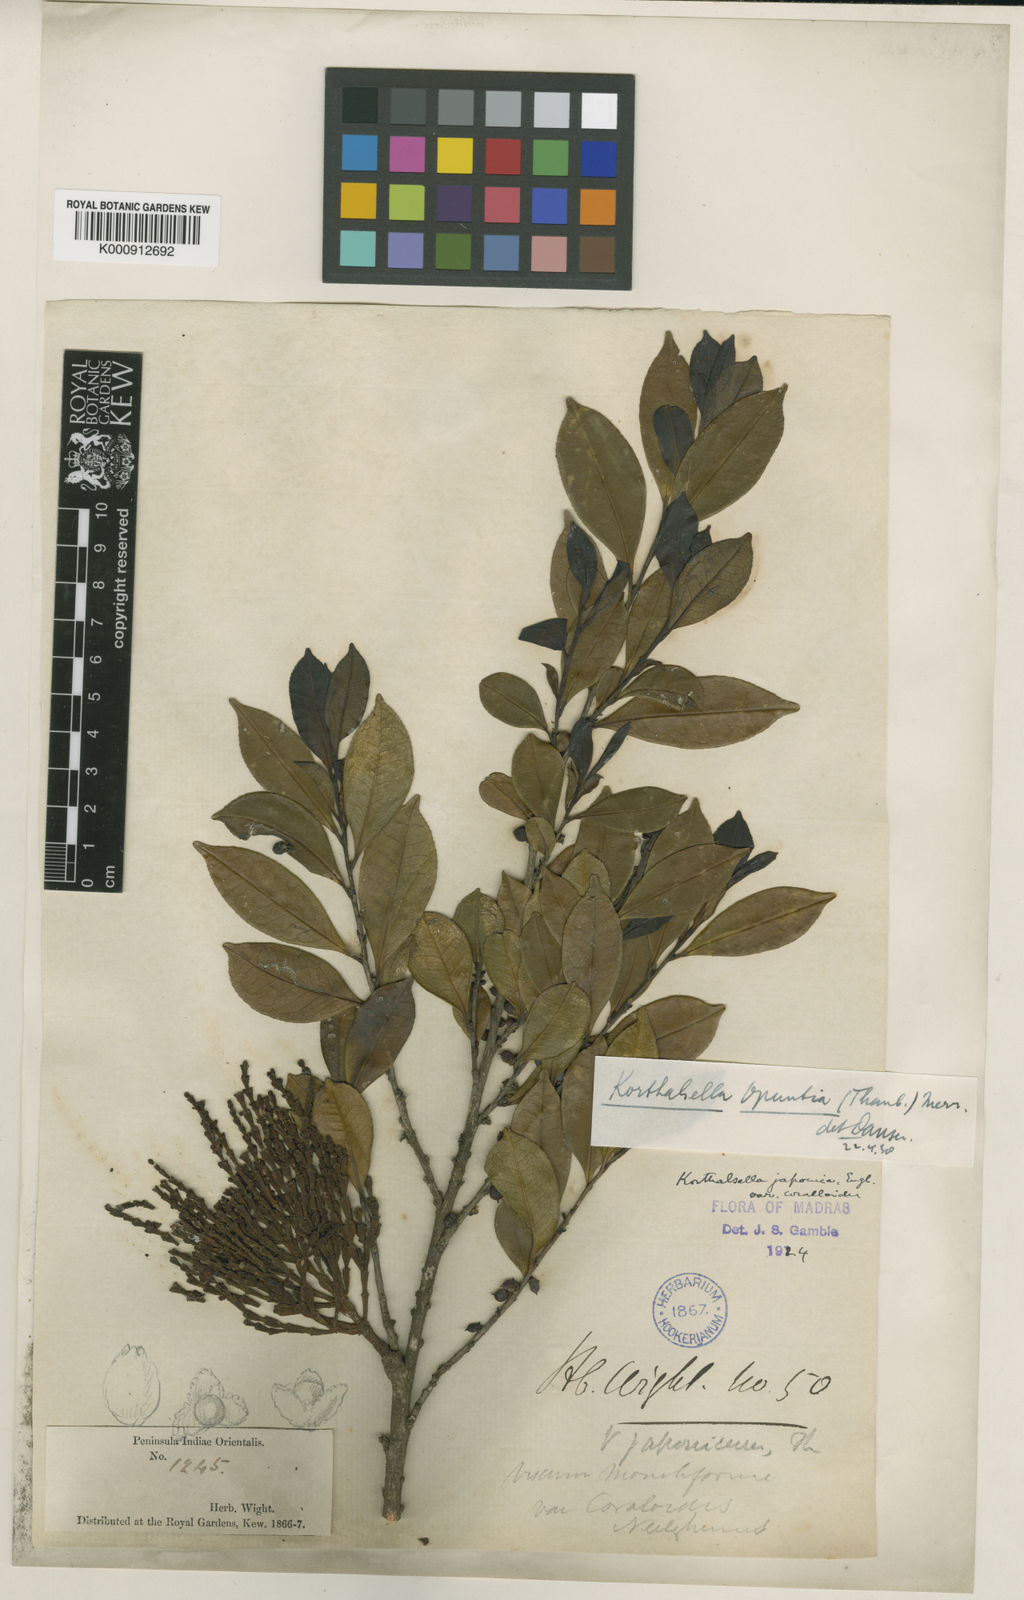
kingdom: Plantae
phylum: Tracheophyta
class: Magnoliopsida
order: Santalales
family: Viscaceae
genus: Korthalsella
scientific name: Korthalsella japonica
